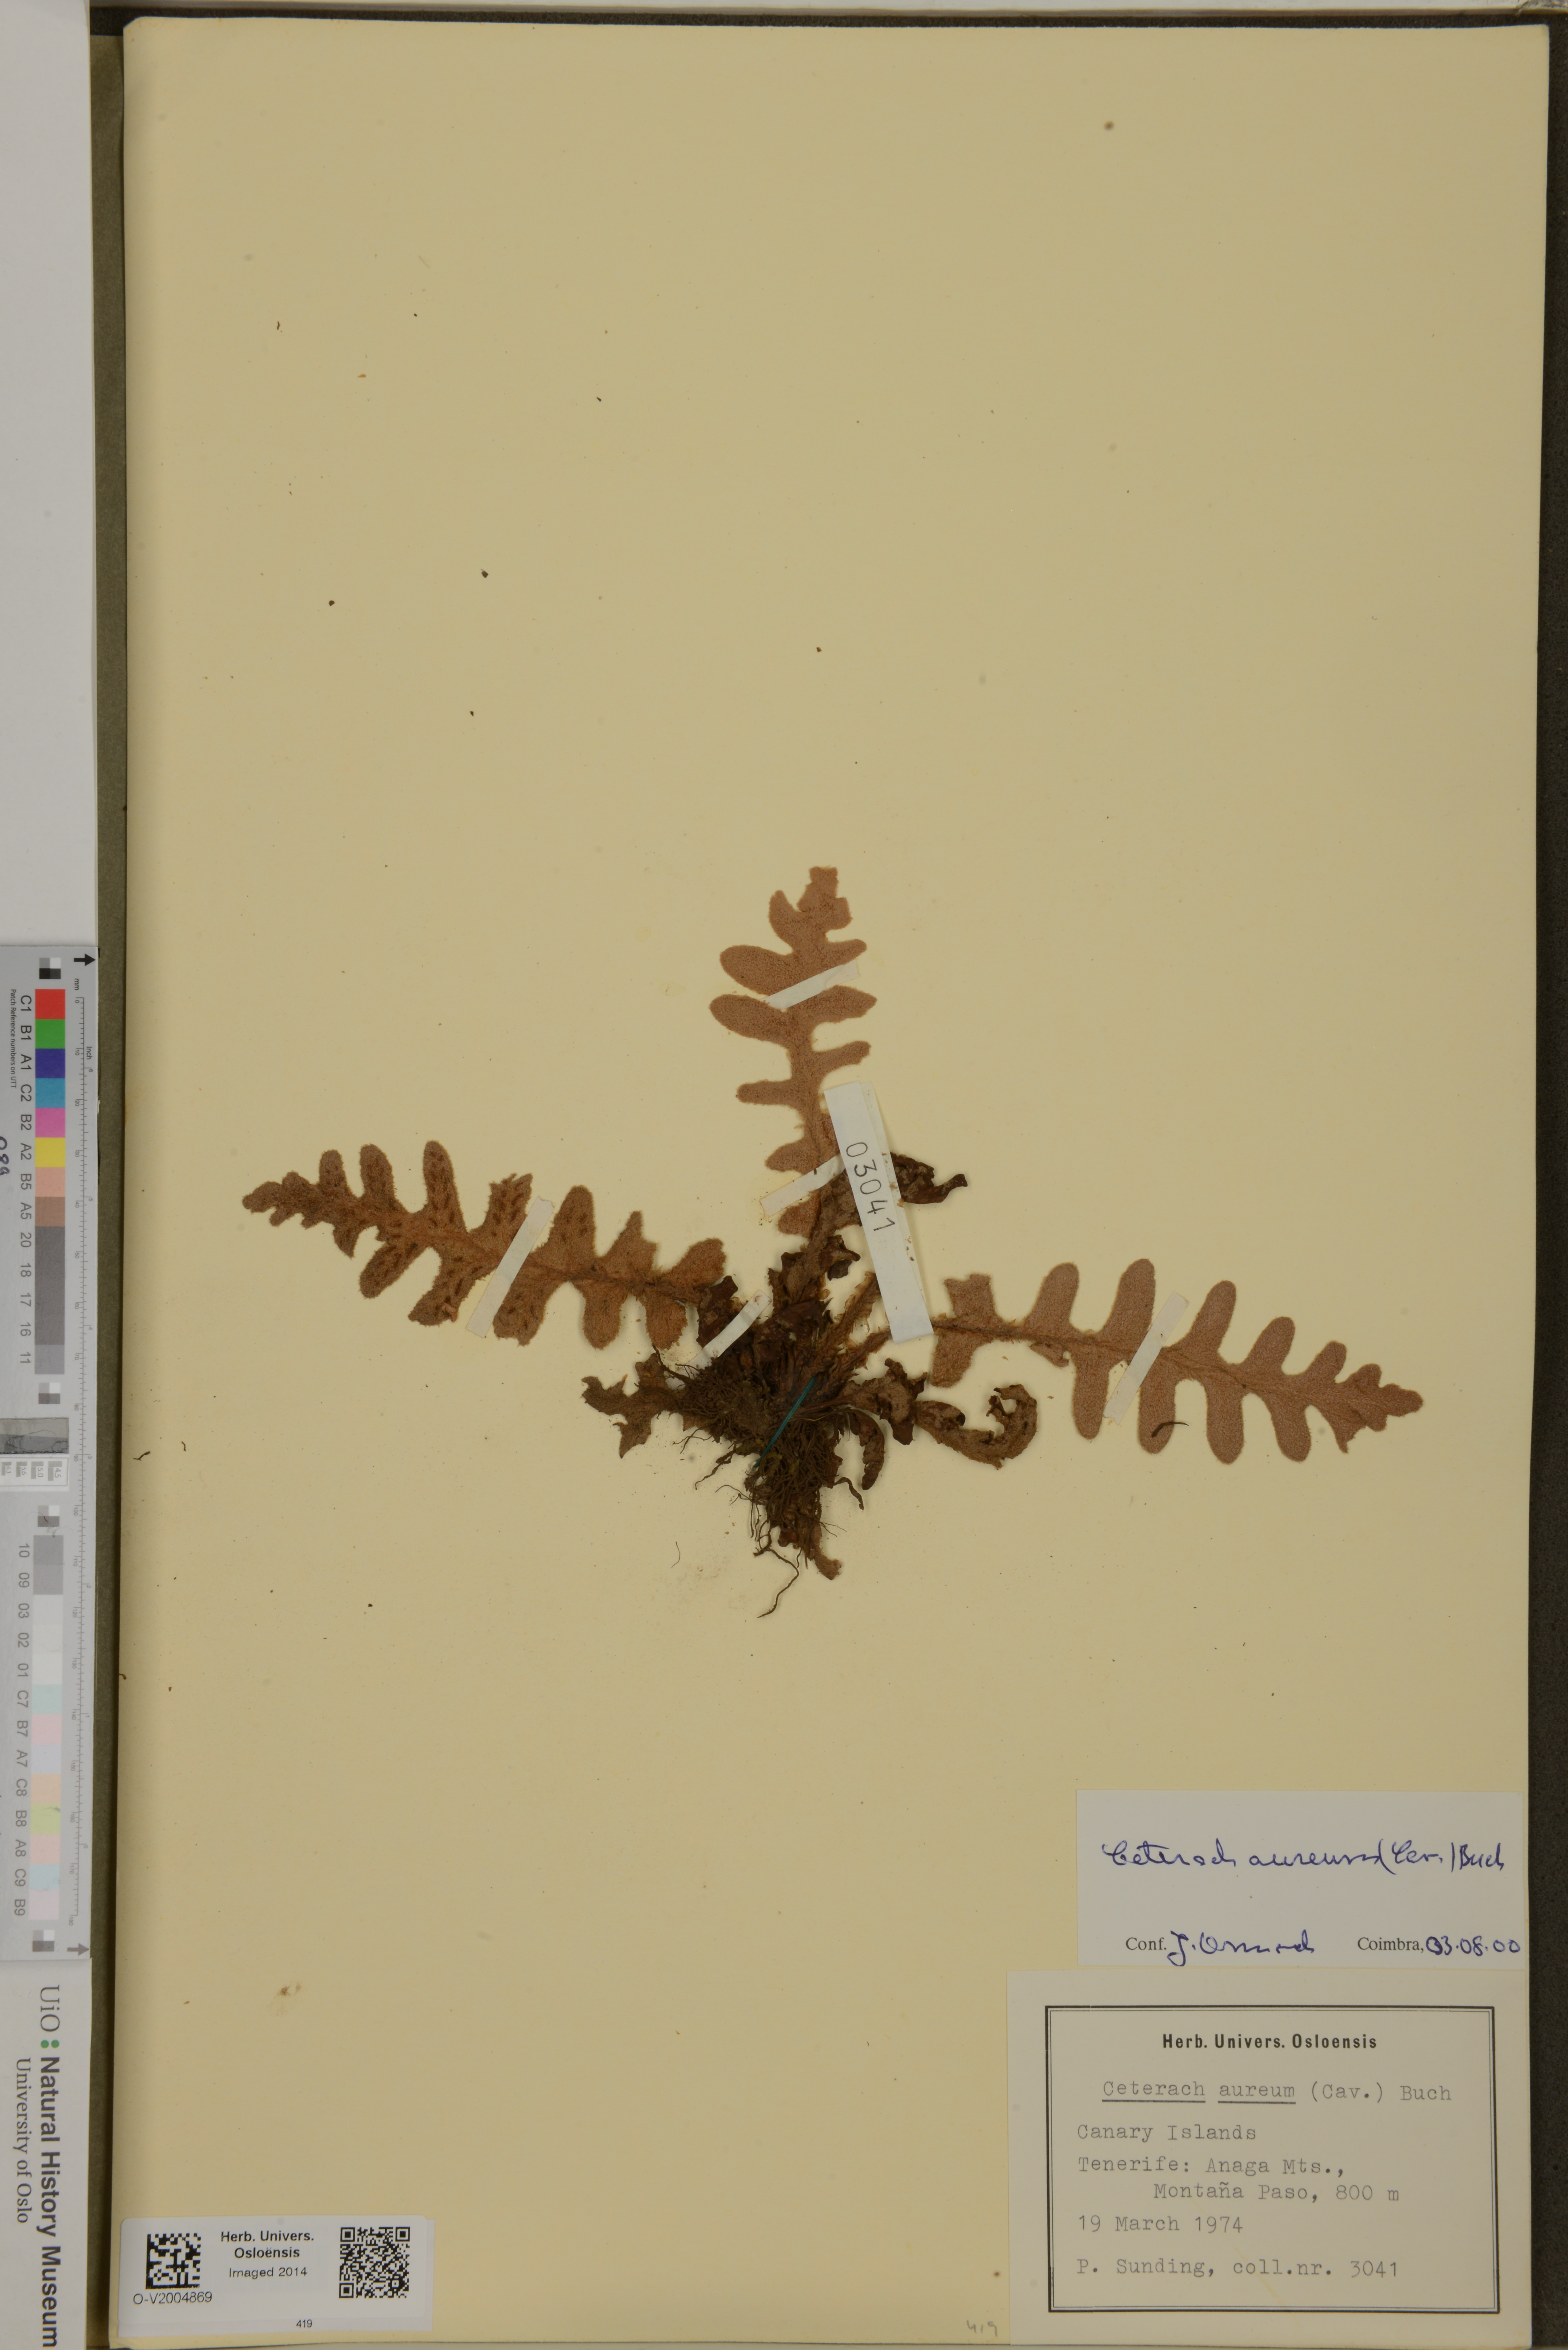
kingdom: Plantae
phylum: Tracheophyta
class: Polypodiopsida
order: Polypodiales
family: Aspleniaceae
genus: Asplenium
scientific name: Asplenium aureum
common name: Golden rustyback fern
